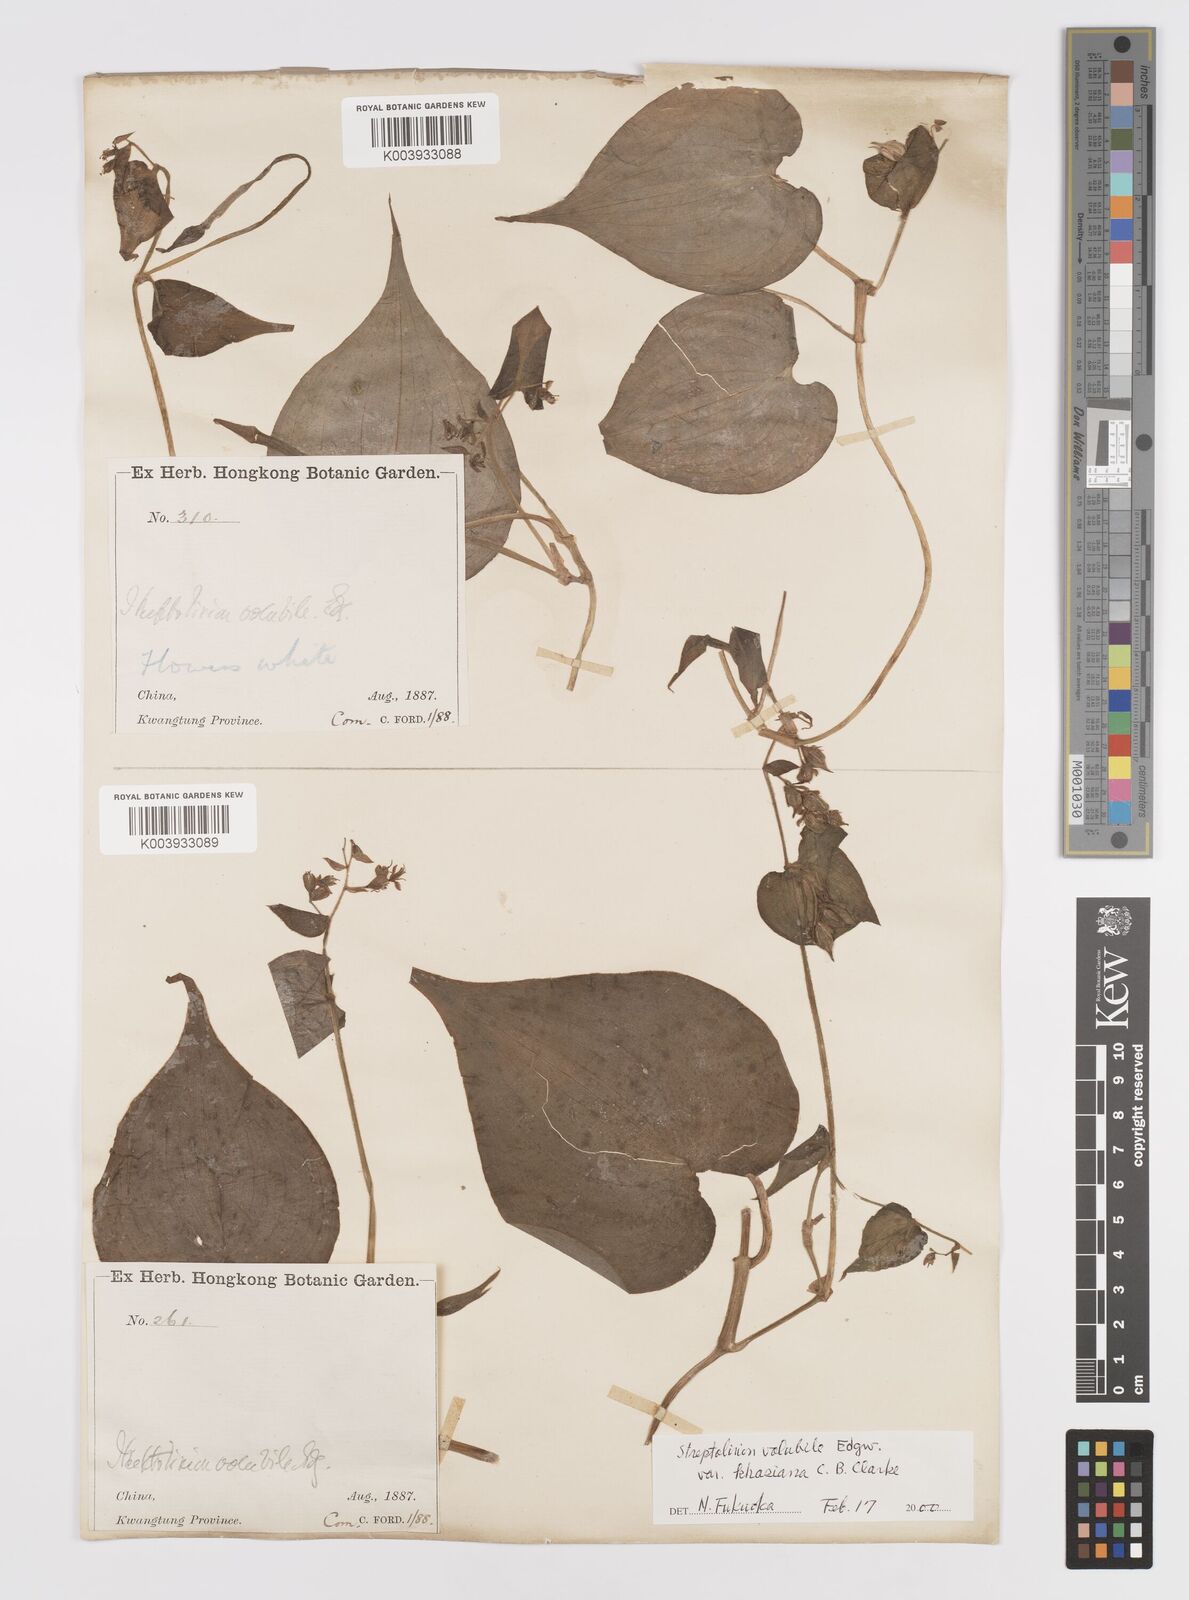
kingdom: Plantae
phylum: Tracheophyta
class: Liliopsida
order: Commelinales
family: Commelinaceae
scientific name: Commelinaceae
